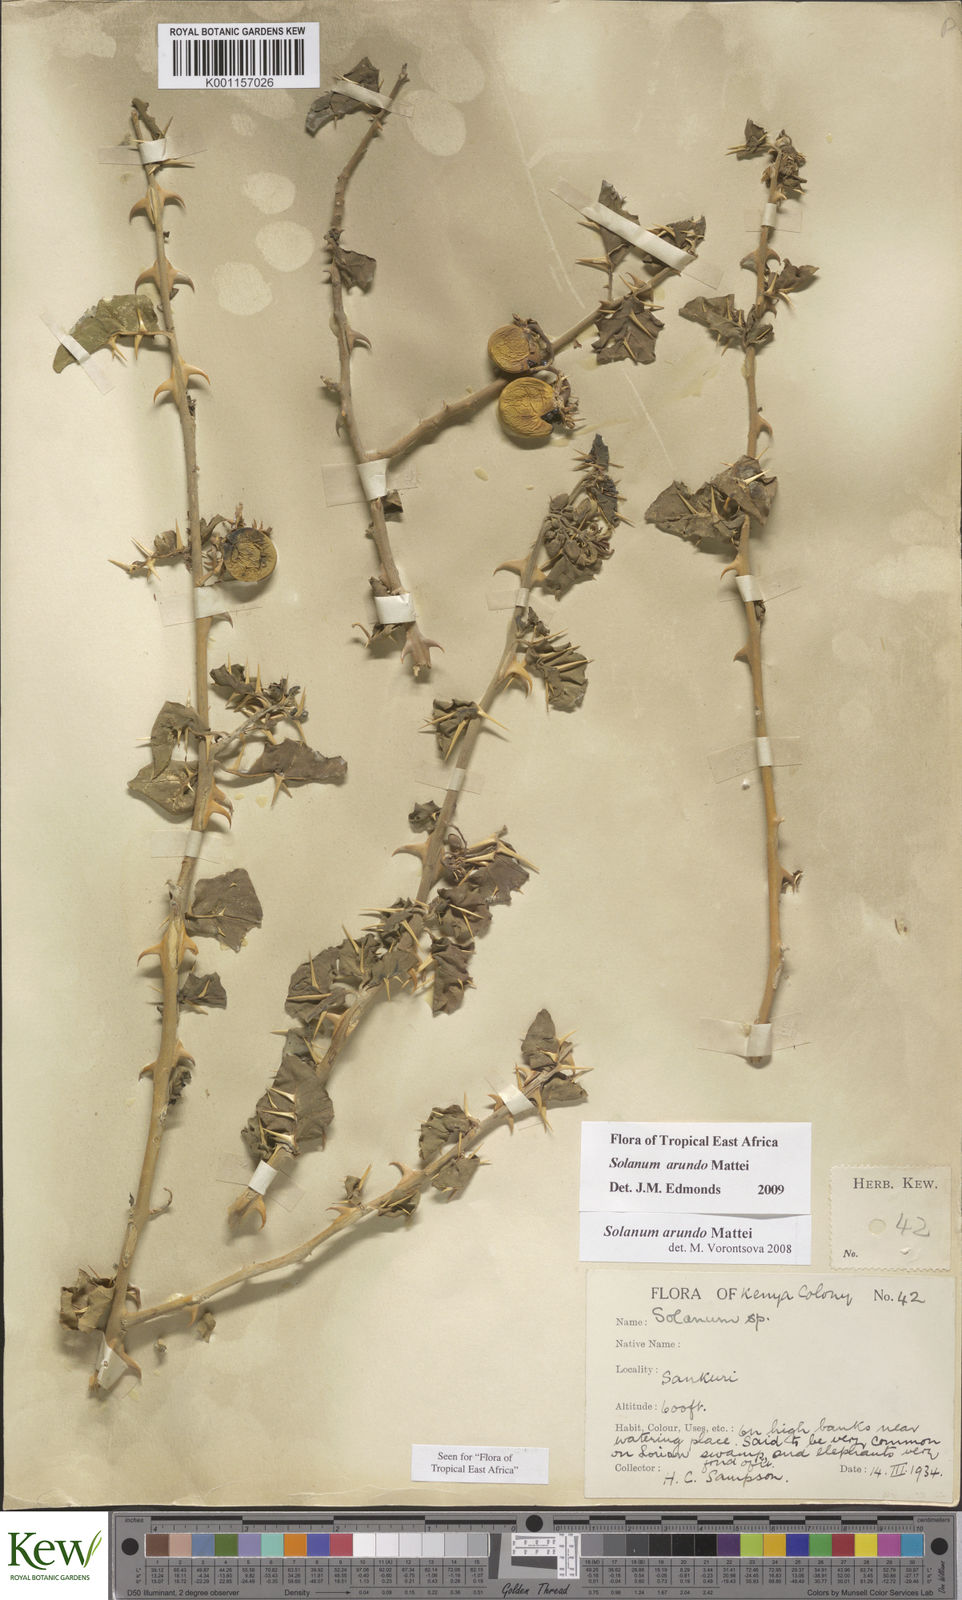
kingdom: Plantae
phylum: Tracheophyta
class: Magnoliopsida
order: Solanales
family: Solanaceae
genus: Solanum
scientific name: Solanum arundo
